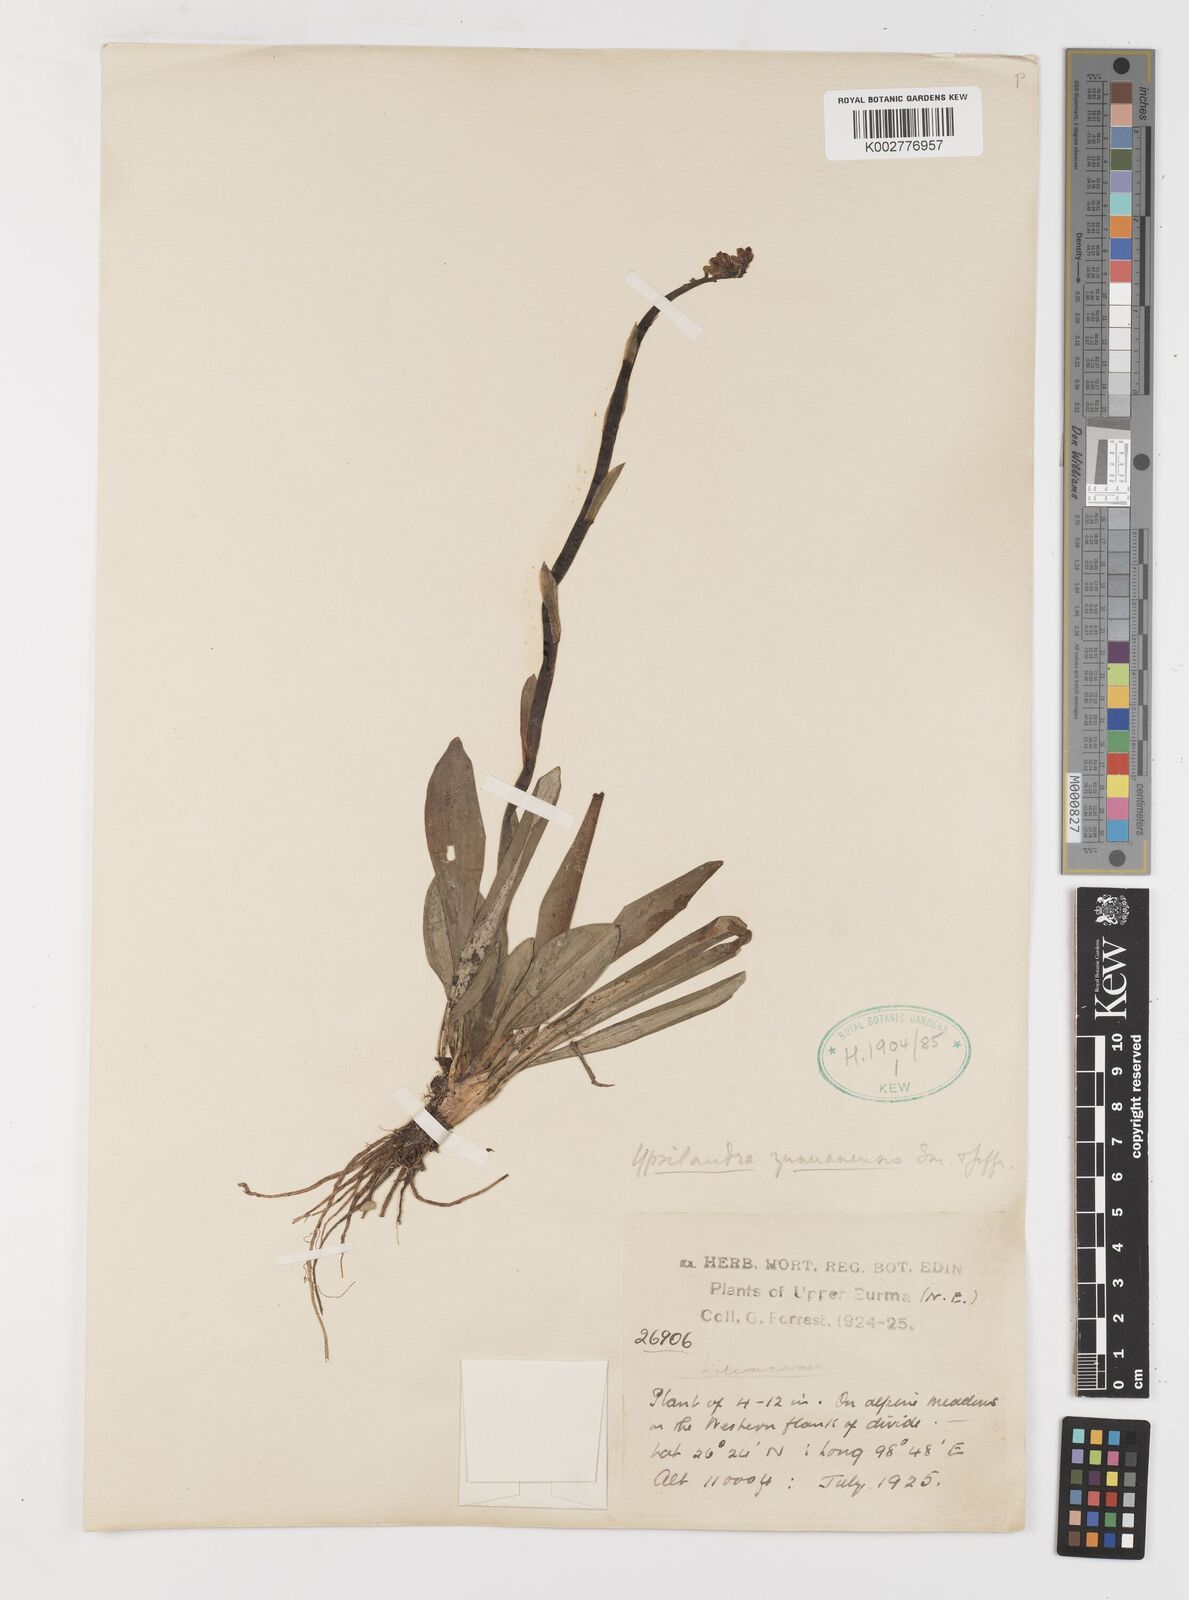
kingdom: Plantae
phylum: Tracheophyta
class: Liliopsida
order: Liliales
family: Melanthiaceae
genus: Helonias
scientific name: Helonias yunnanensis
